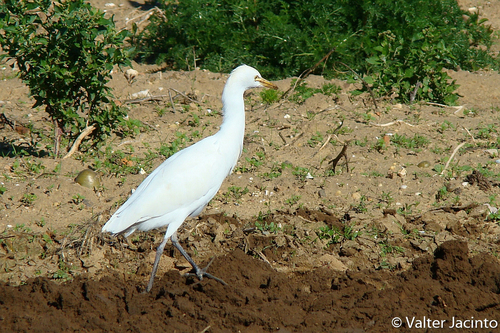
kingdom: Animalia
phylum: Chordata
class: Aves
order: Pelecaniformes
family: Ardeidae
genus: Bubulcus
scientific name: Bubulcus ibis
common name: Cattle egret
